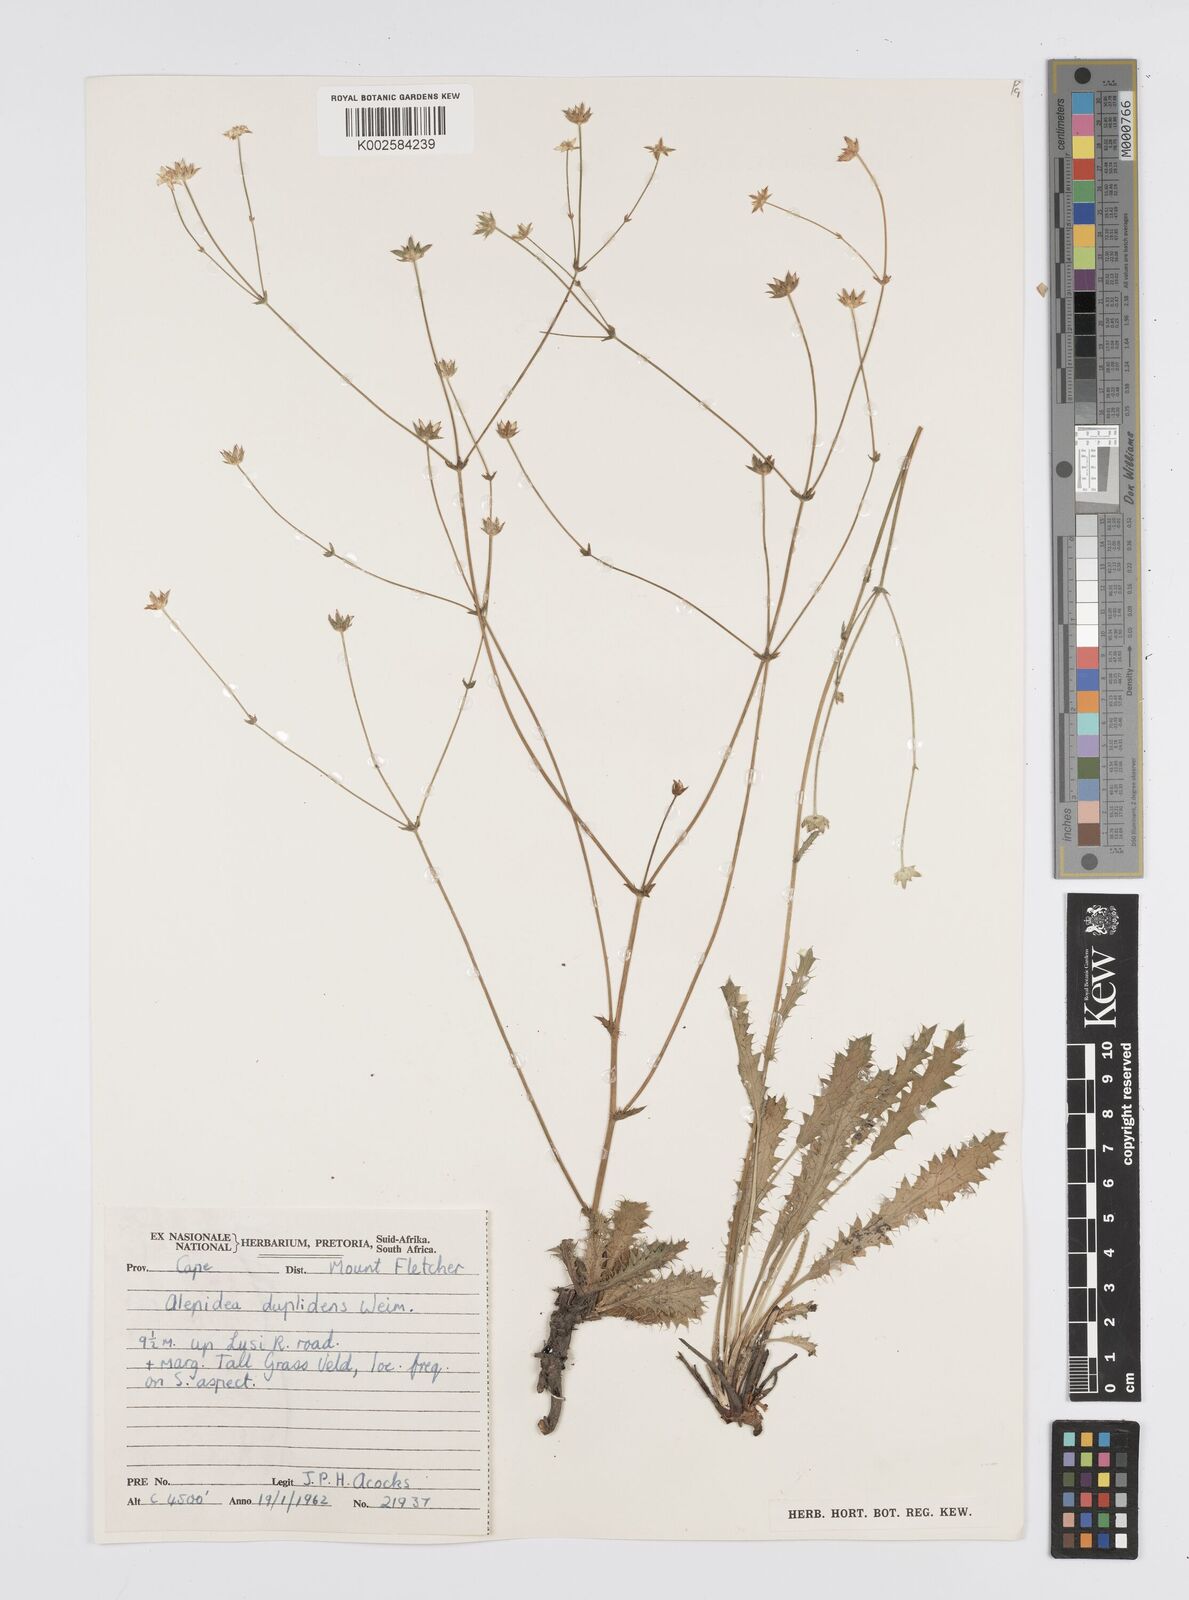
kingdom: Plantae
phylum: Tracheophyta
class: Magnoliopsida
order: Apiales
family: Apiaceae
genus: Alepidea
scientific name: Alepidea cirsiifolia
